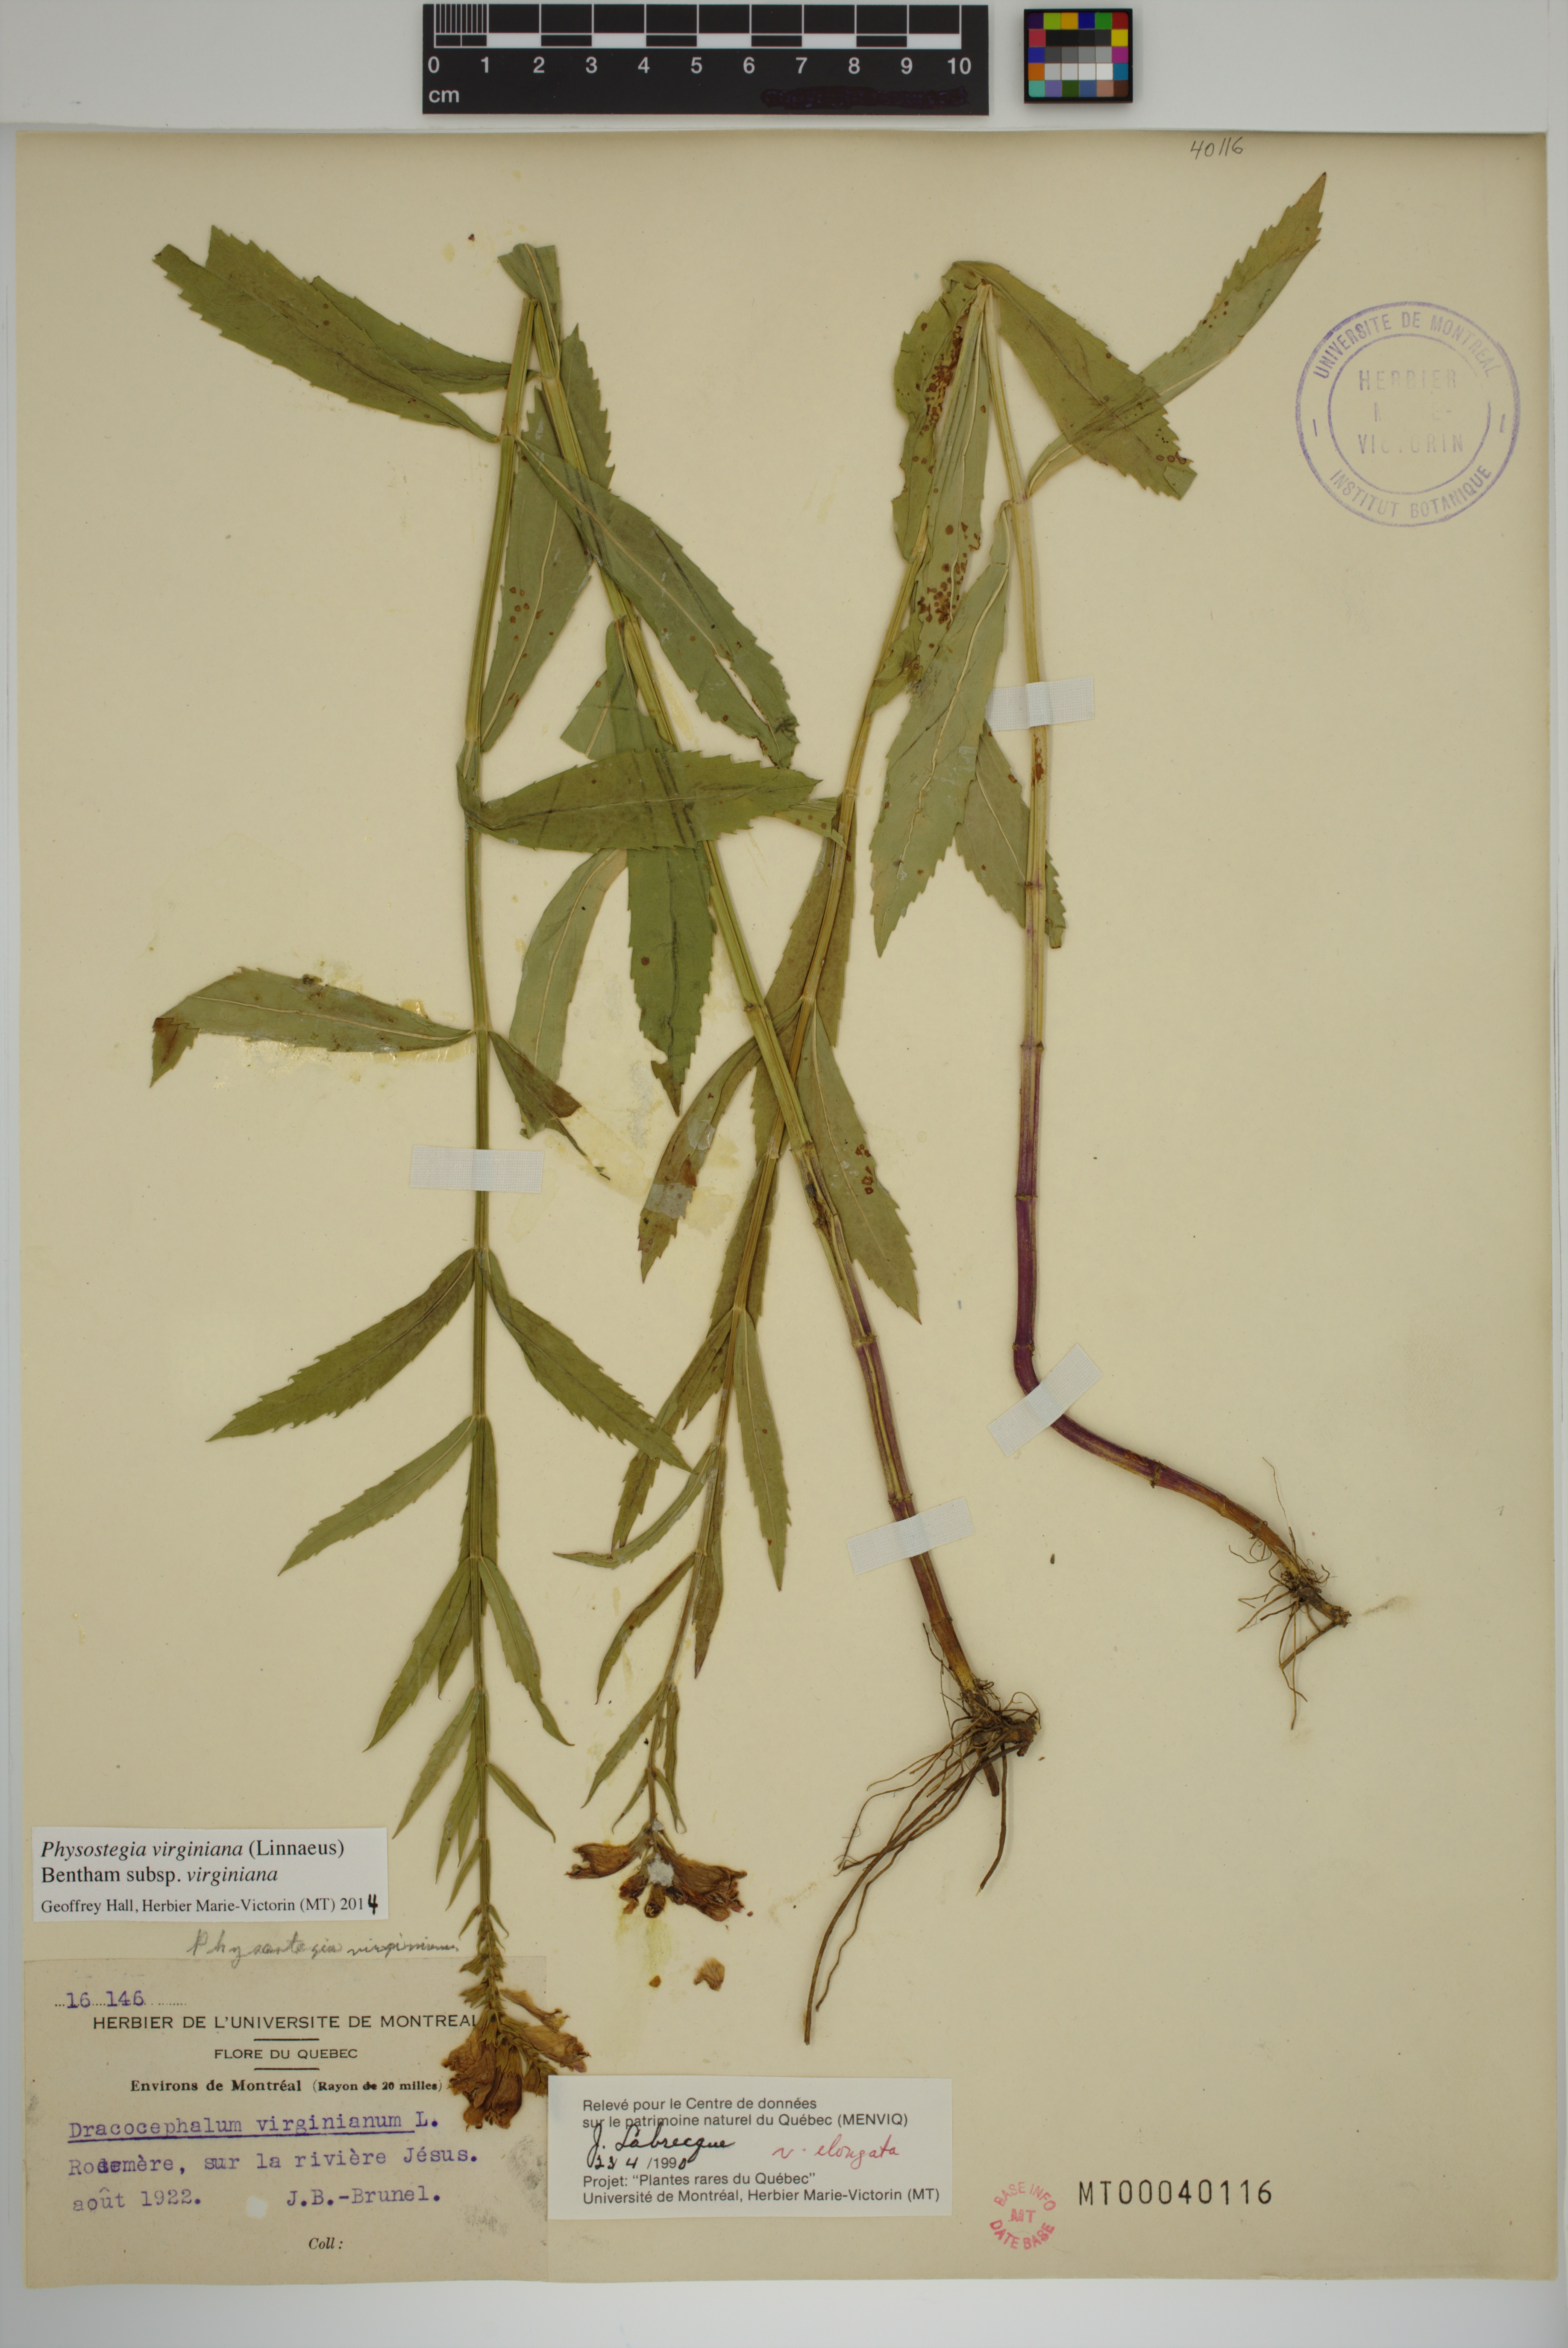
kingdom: Plantae
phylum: Tracheophyta
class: Magnoliopsida
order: Lamiales
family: Lamiaceae
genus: Physostegia
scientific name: Physostegia virginiana
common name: Obedient-plant
